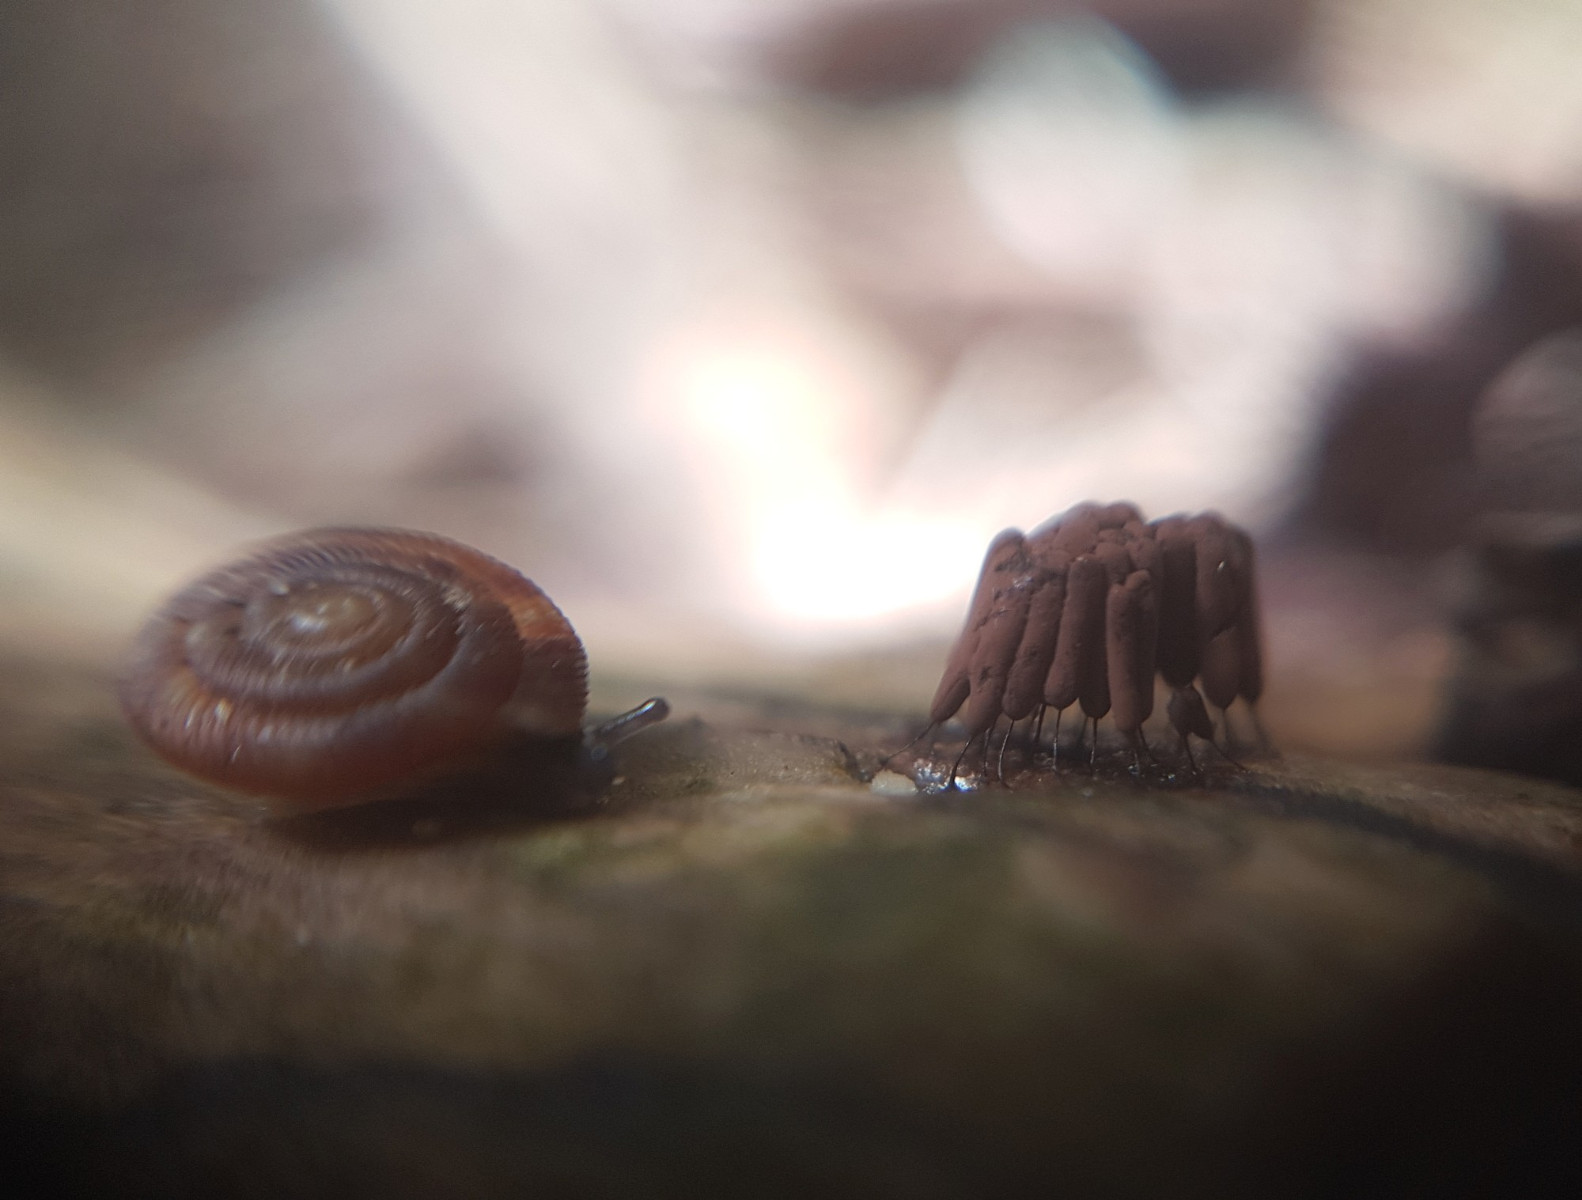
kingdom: Protozoa
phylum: Mycetozoa
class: Myxomycetes
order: Stemonitidales
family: Stemonitidaceae
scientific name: Stemonitidaceae
